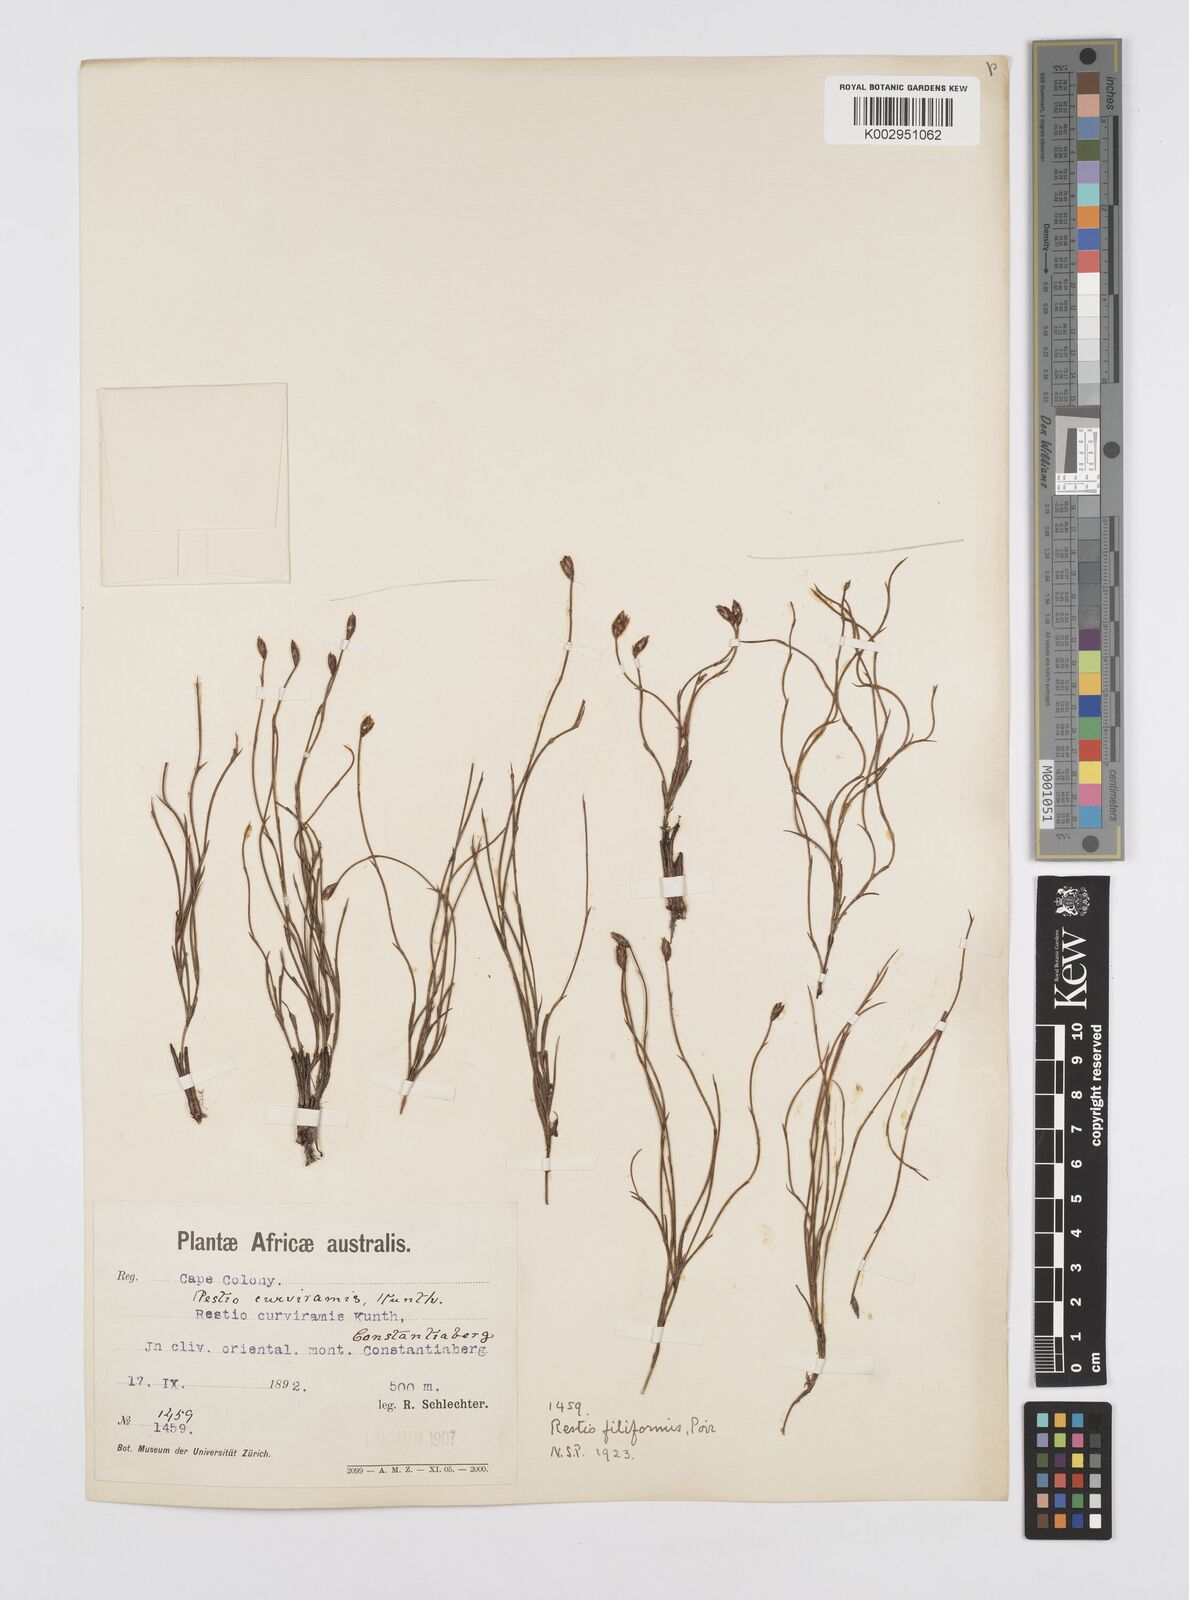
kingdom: Plantae
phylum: Tracheophyta
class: Liliopsida
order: Poales
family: Restionaceae
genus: Restio
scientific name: Restio filiformis
